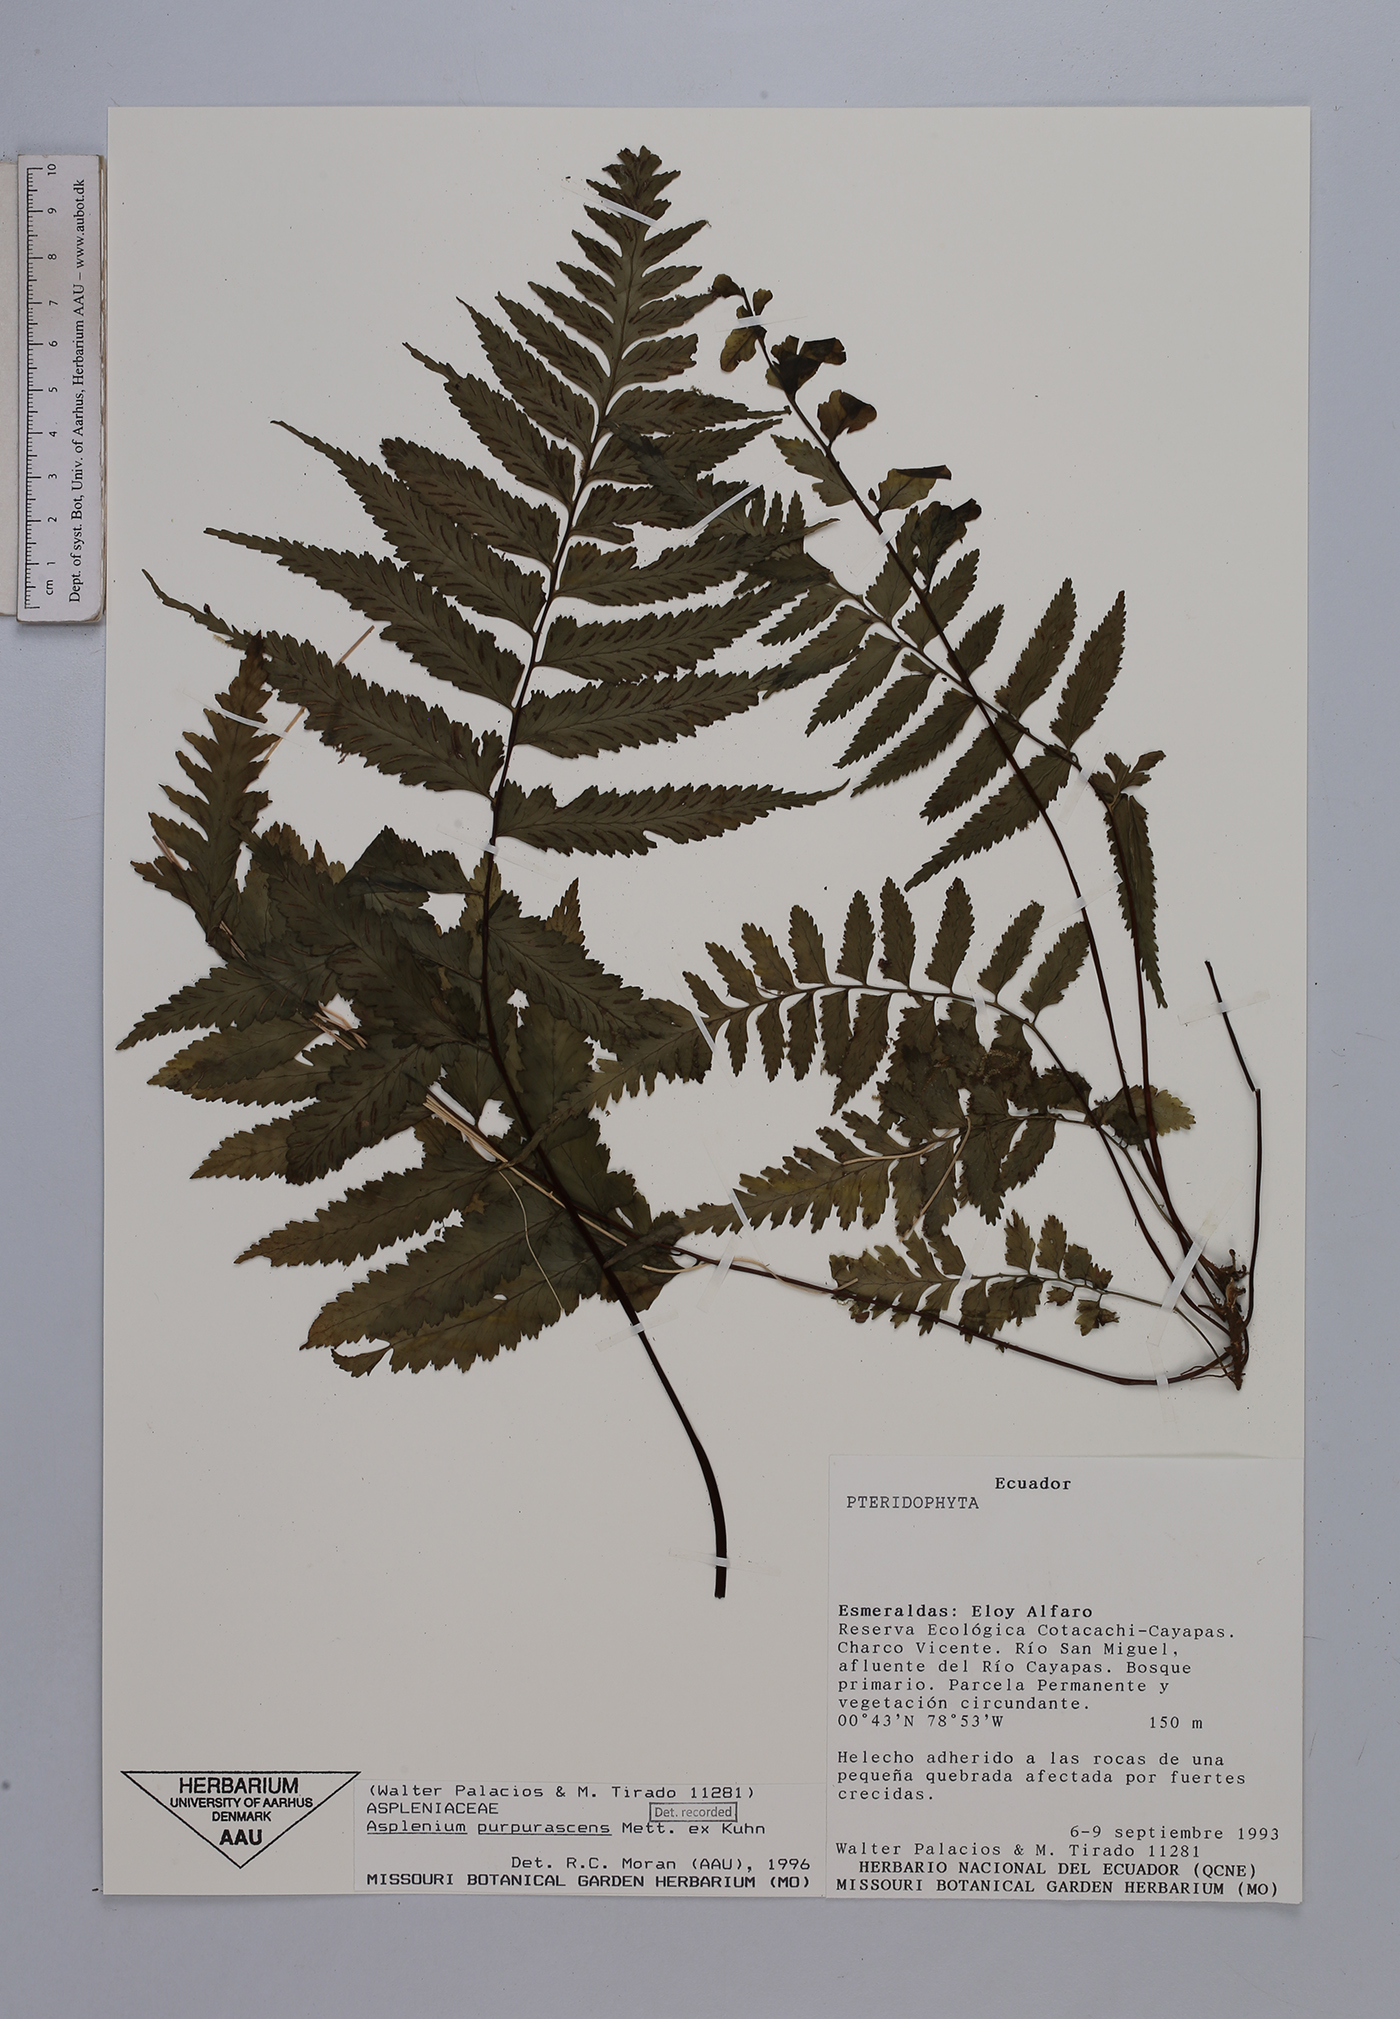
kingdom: Plantae
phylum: Tracheophyta
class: Polypodiopsida
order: Polypodiales
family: Aspleniaceae
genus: Hymenasplenium
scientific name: Hymenasplenium purpurascens
